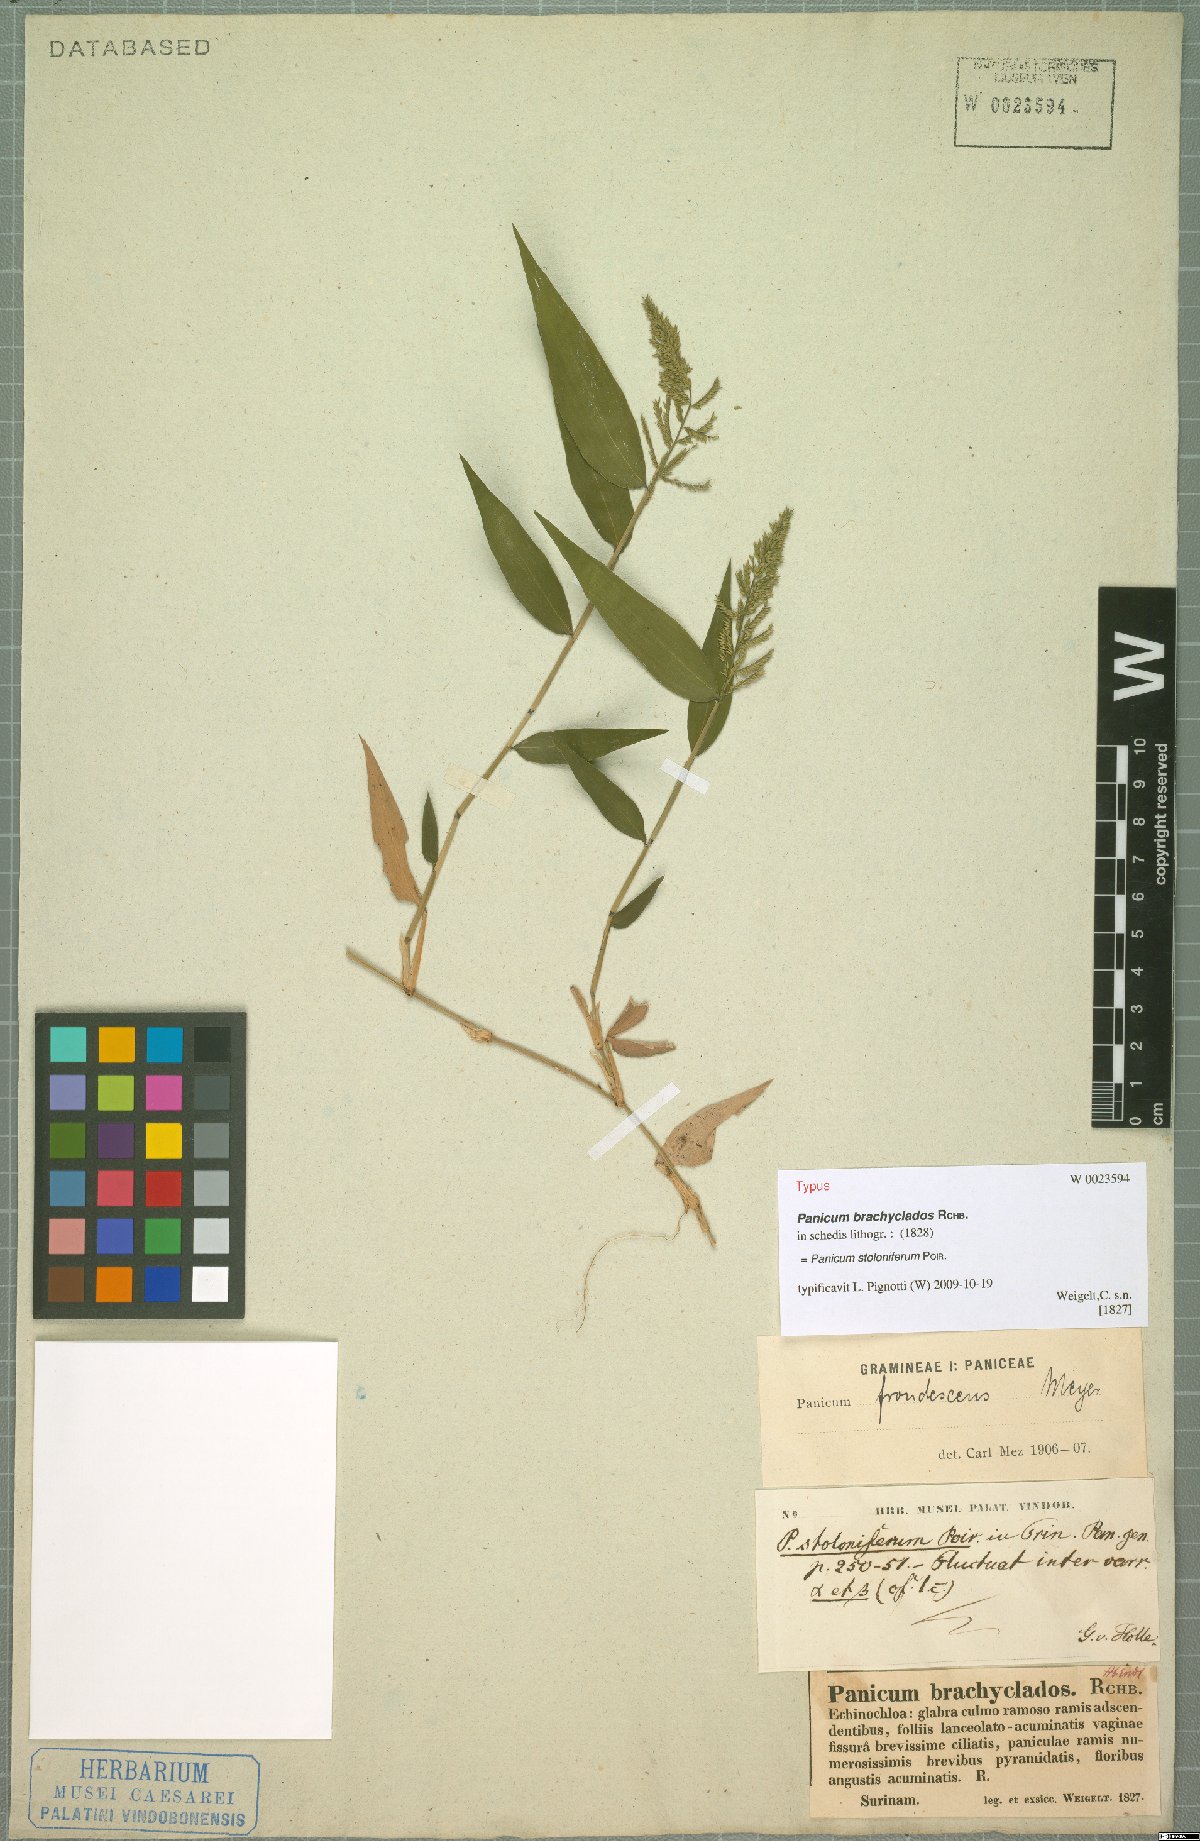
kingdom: Plantae
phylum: Tracheophyta
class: Liliopsida
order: Poales
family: Poaceae
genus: Ocellochloa
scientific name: Ocellochloa stolonifera
